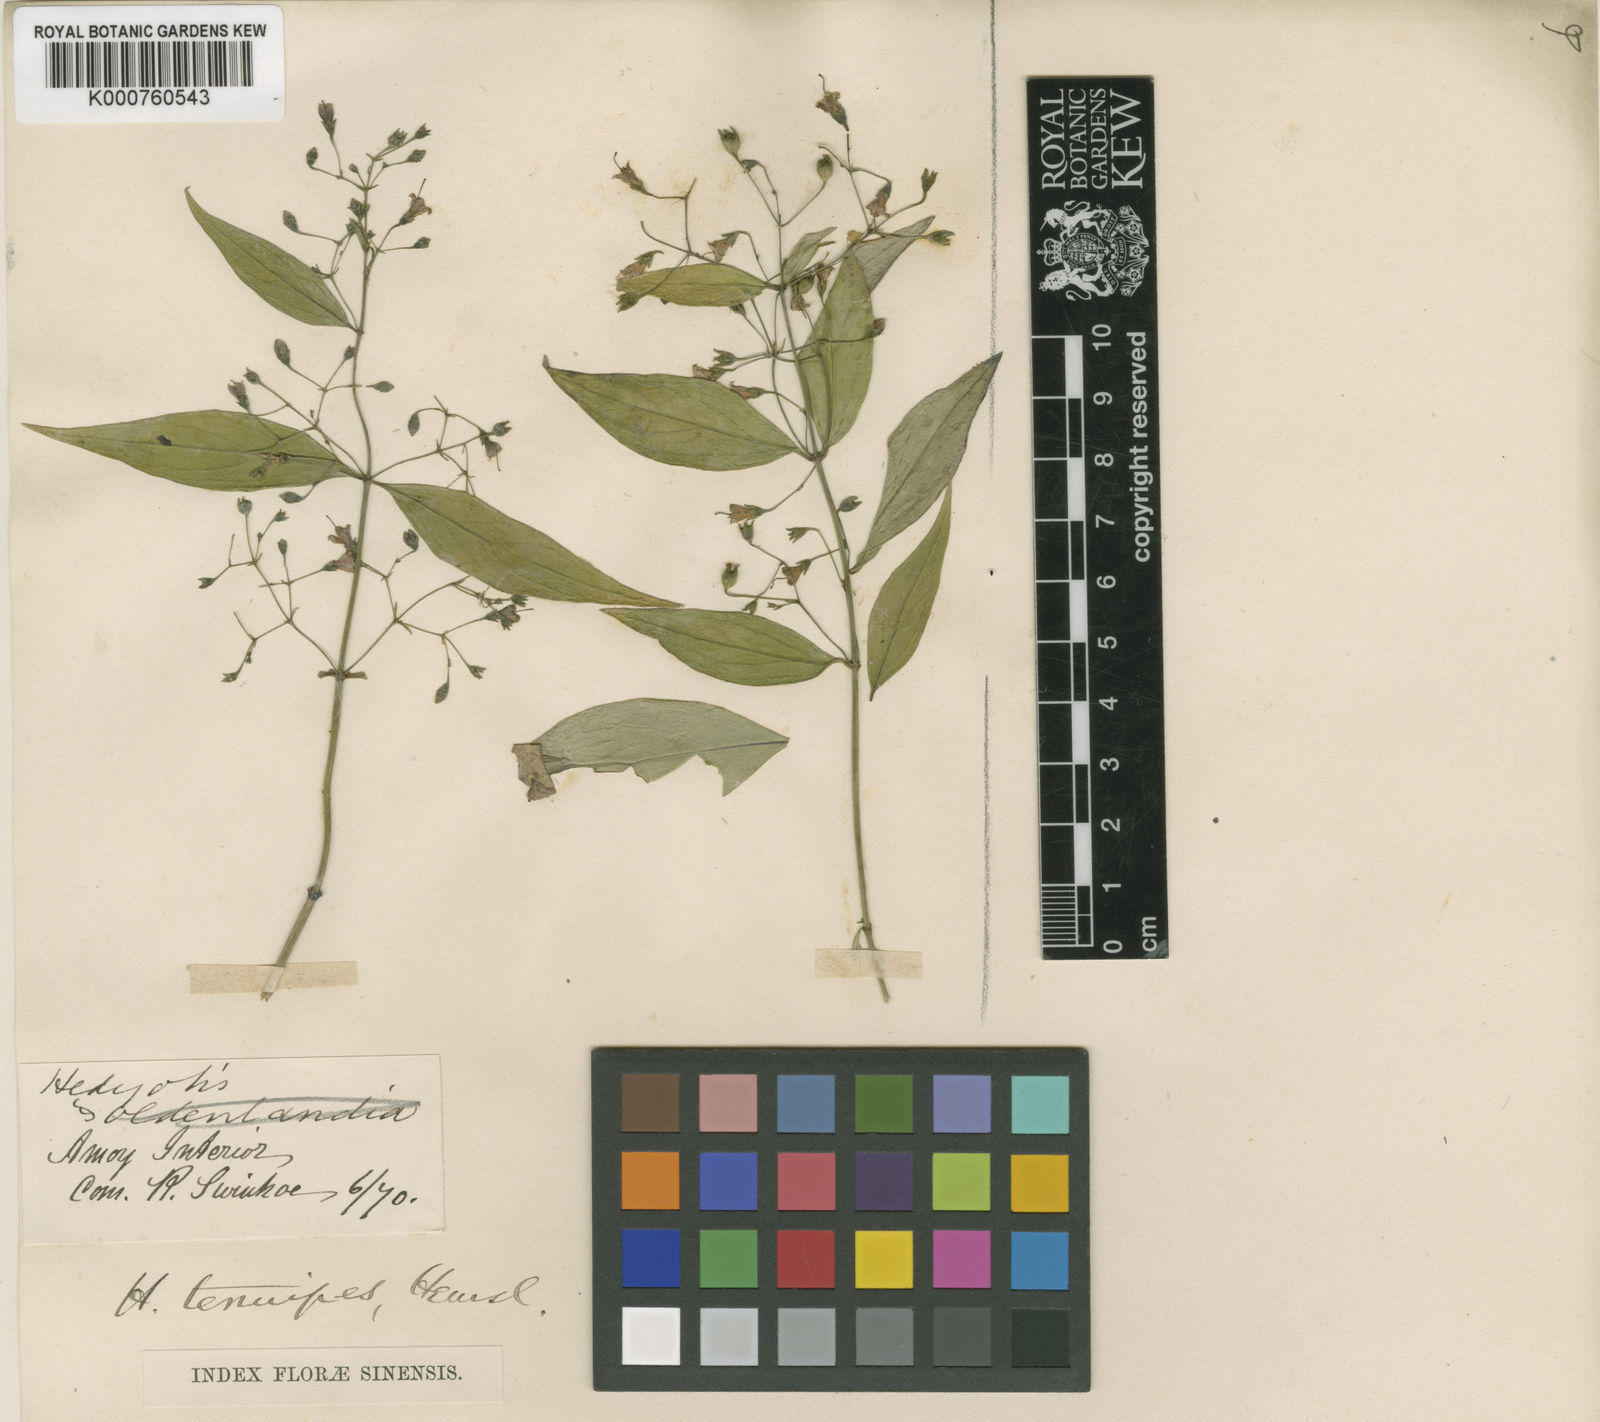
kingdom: Plantae
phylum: Tracheophyta
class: Magnoliopsida
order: Gentianales
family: Rubiaceae
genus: Hedyotis
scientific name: Hedyotis tenuipes
